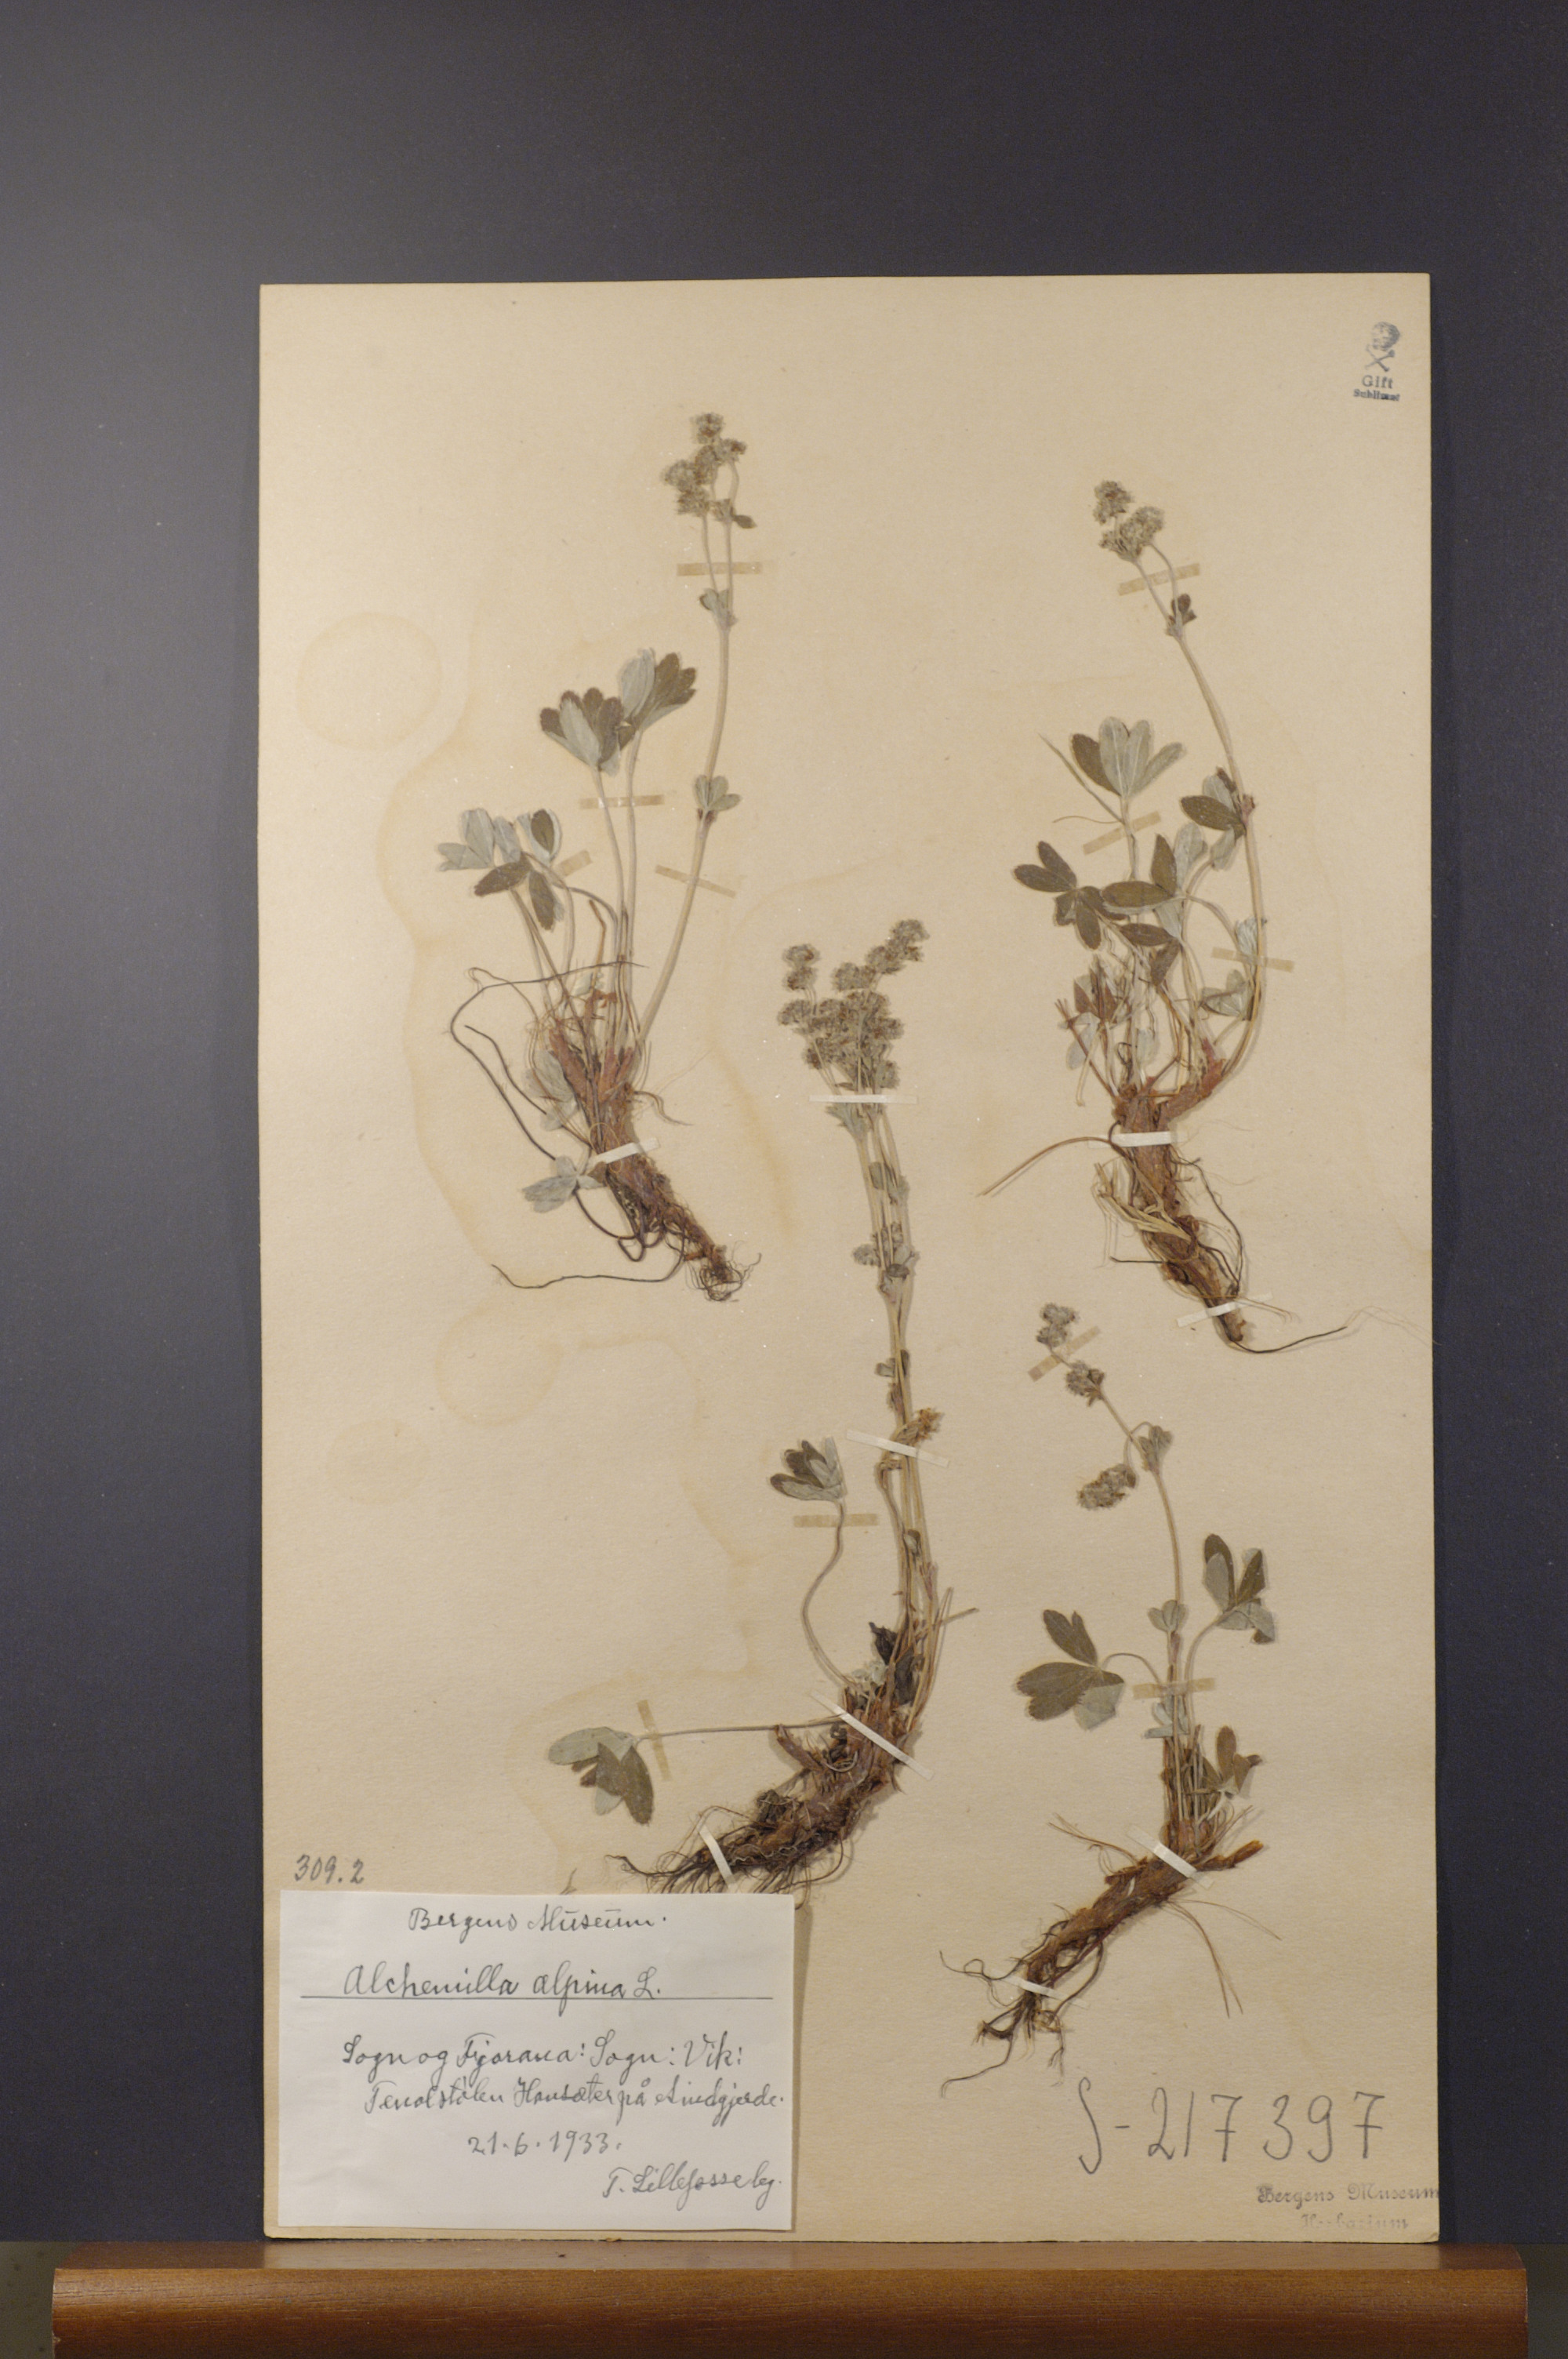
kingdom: Plantae
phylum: Tracheophyta
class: Magnoliopsida
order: Rosales
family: Rosaceae
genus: Alchemilla
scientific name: Alchemilla alpina
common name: Alpine lady's-mantle
